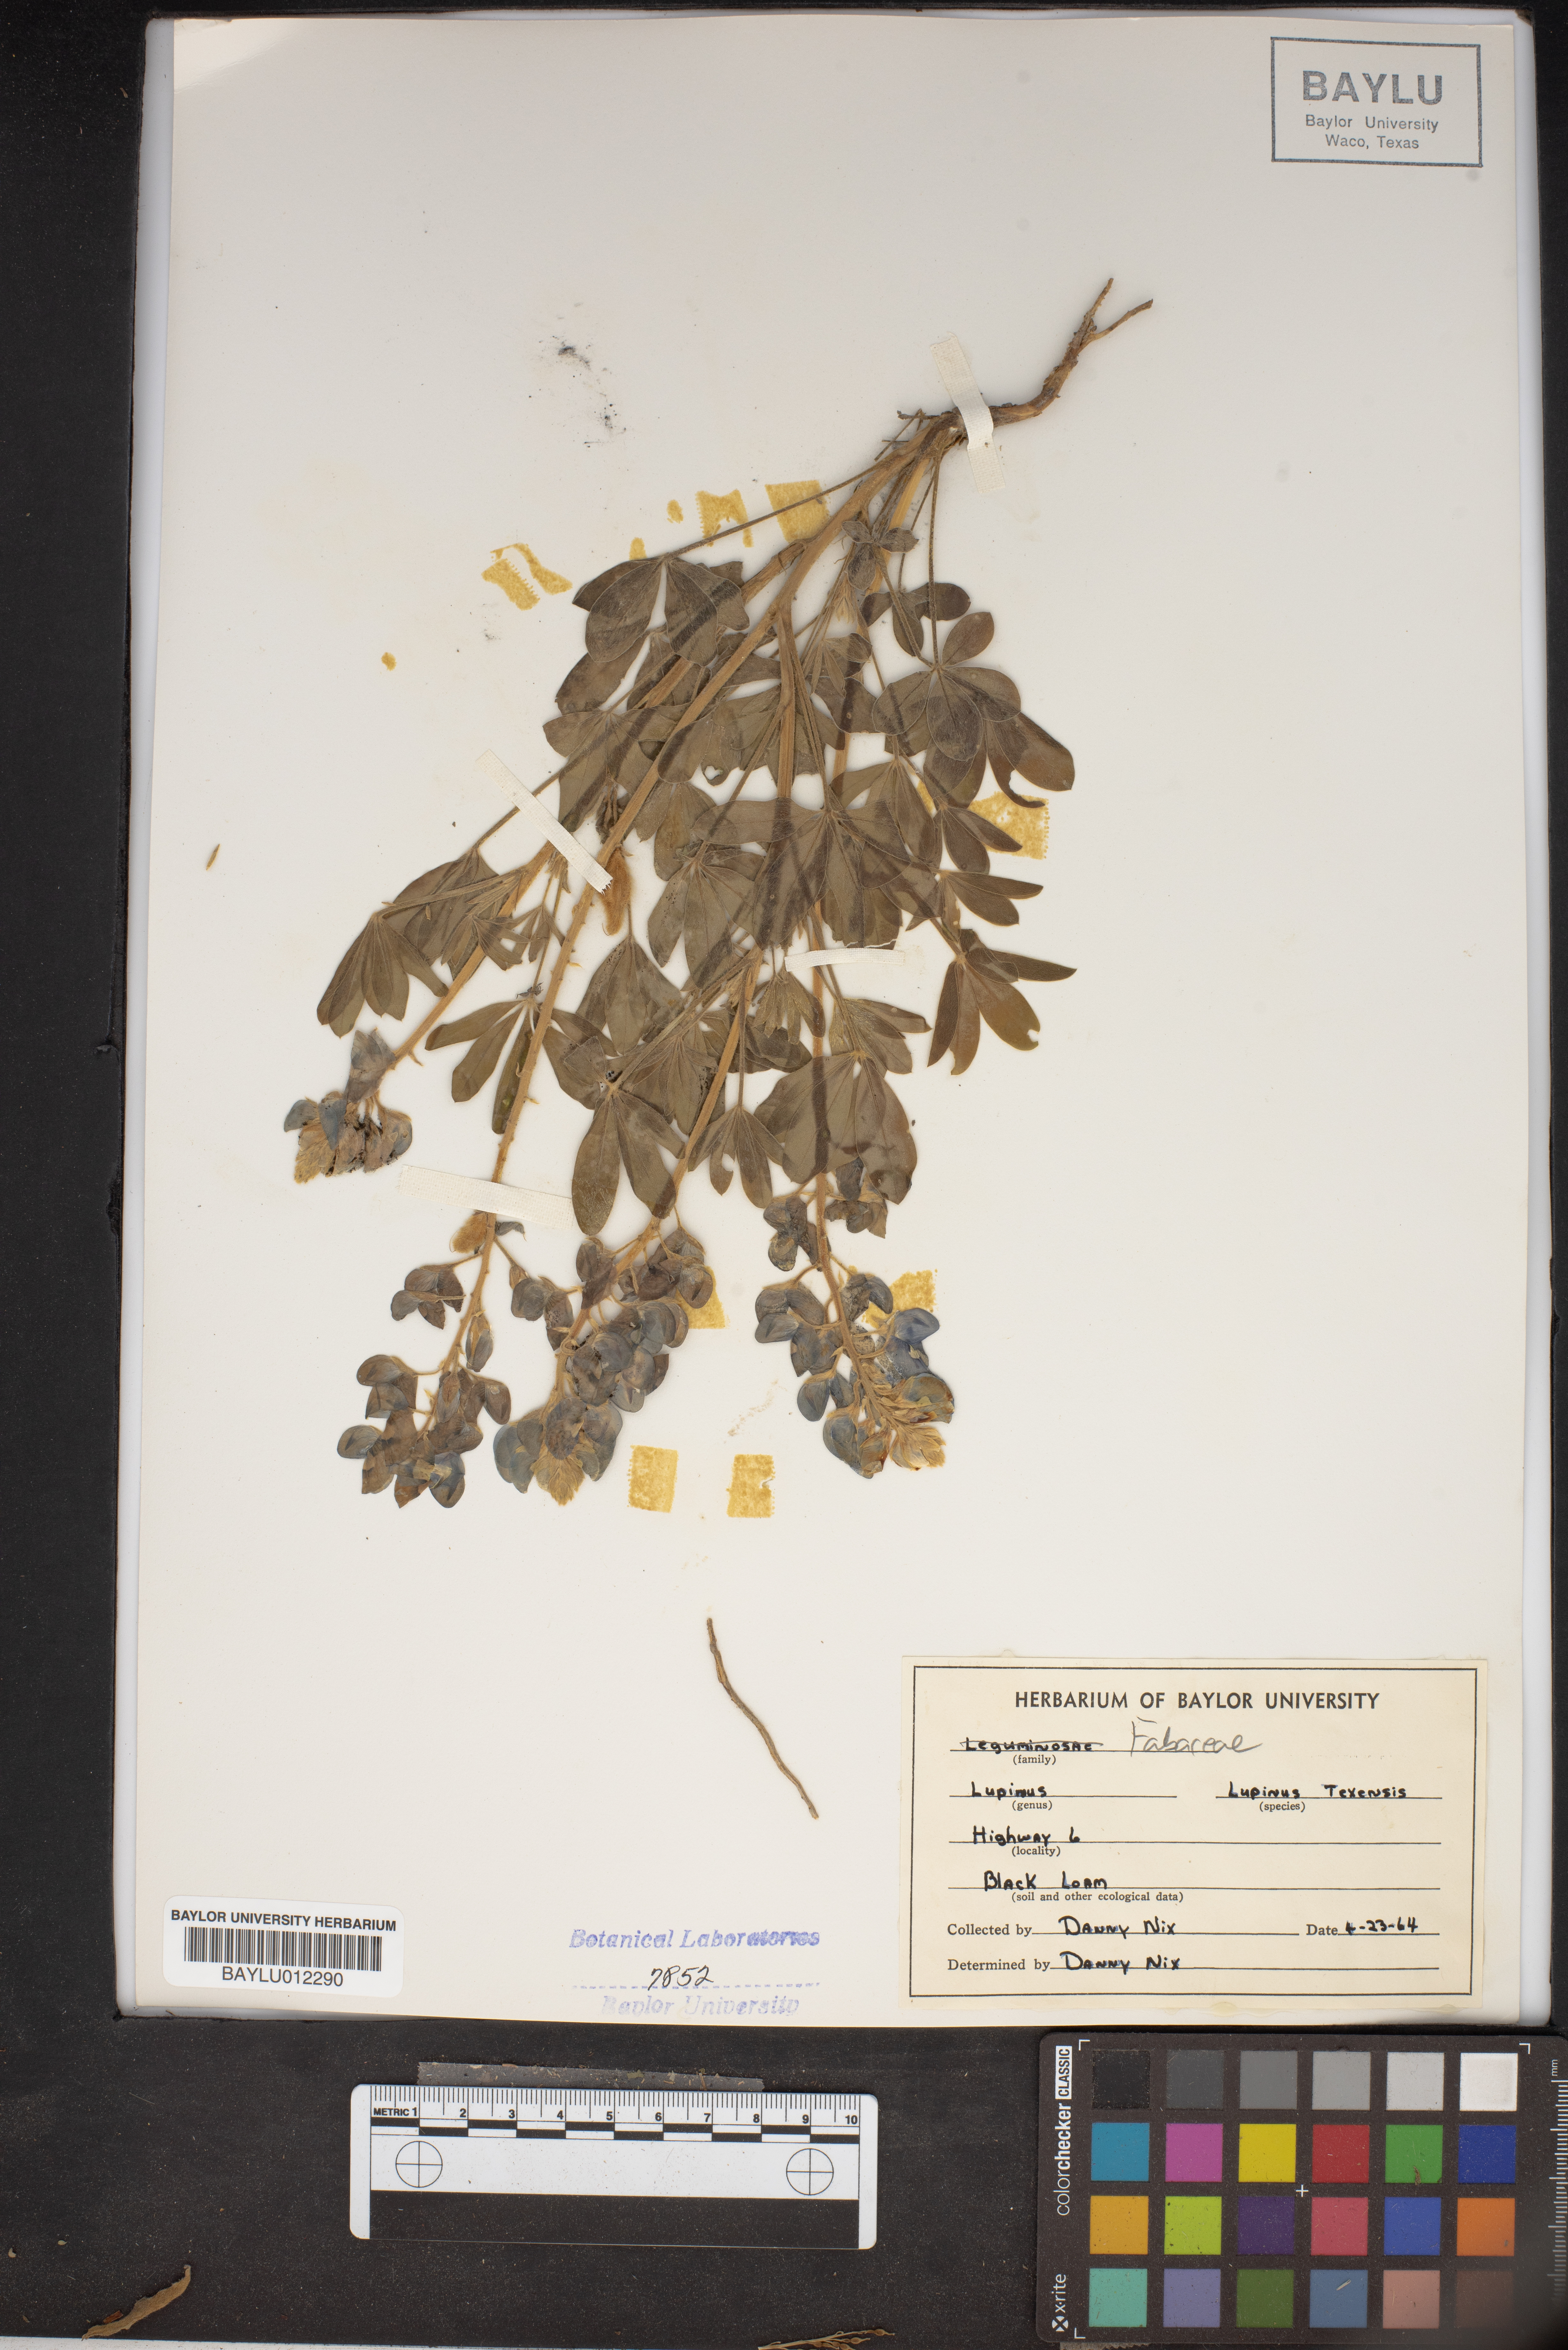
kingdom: Plantae
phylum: Tracheophyta
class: Magnoliopsida
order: Fabales
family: Fabaceae
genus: Lupinus
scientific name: Lupinus texensis
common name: Texas bluebonnet
